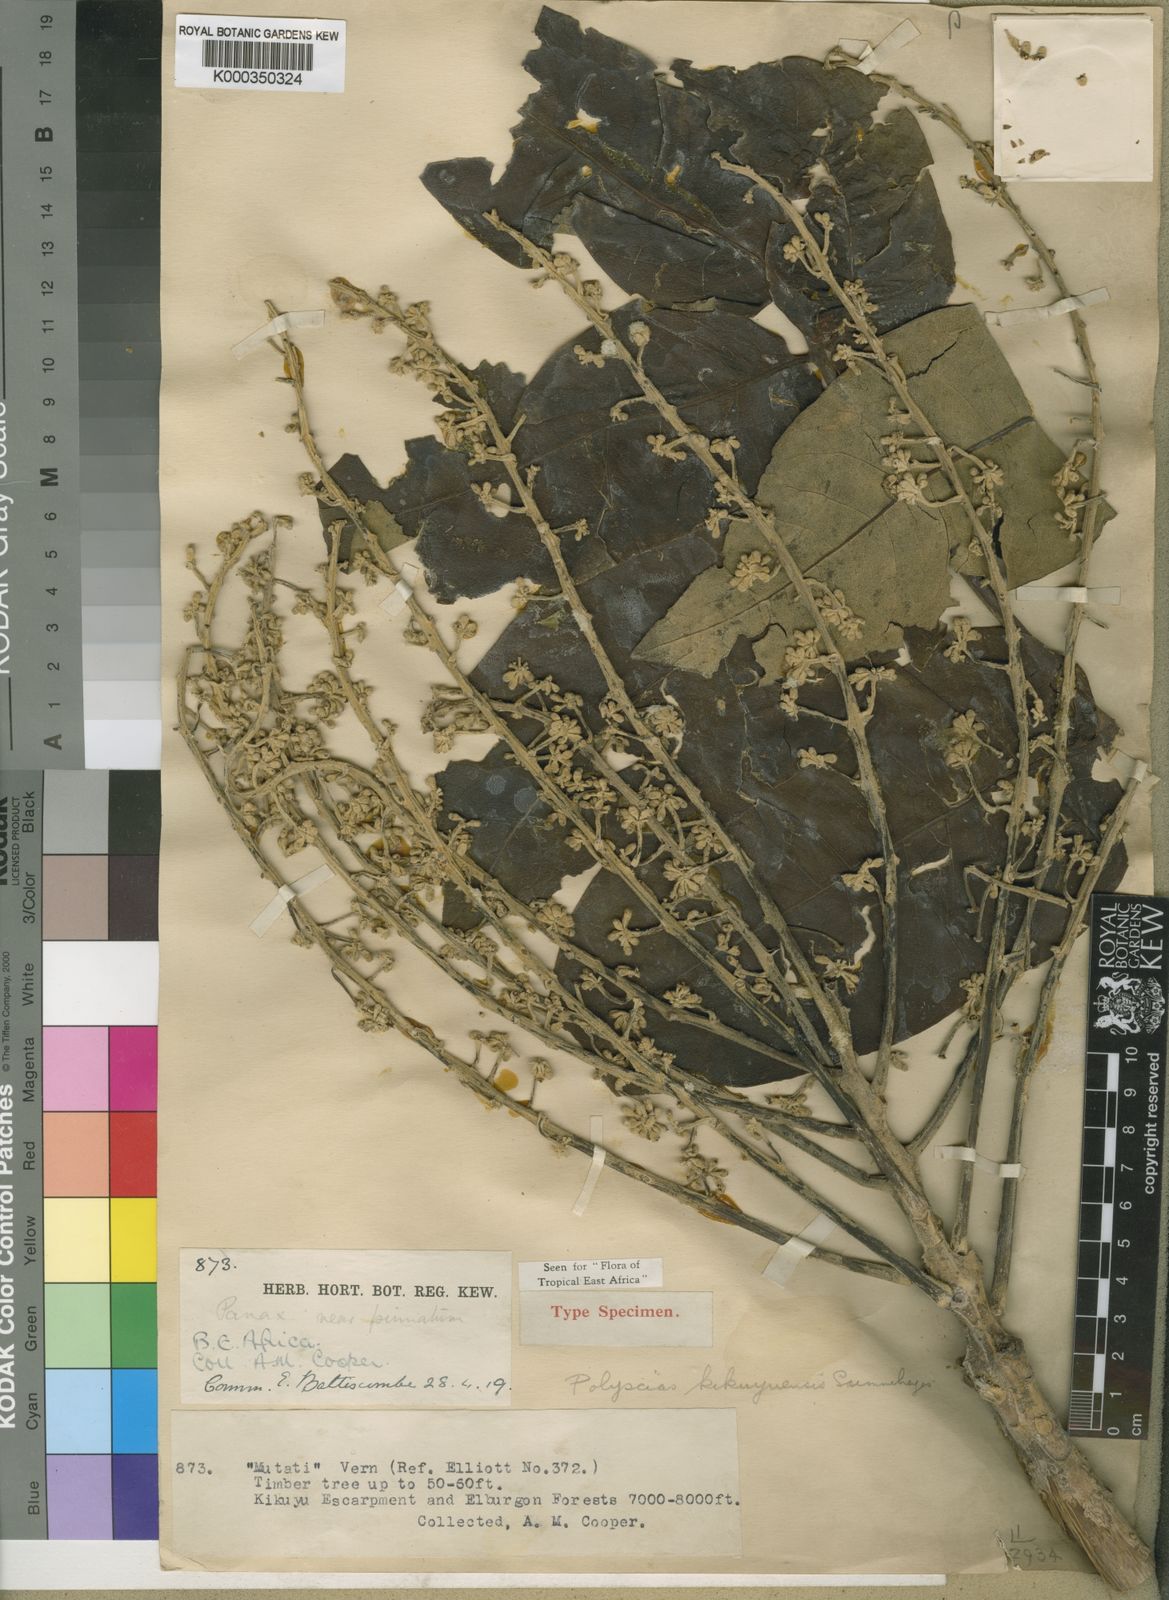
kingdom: Plantae
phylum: Tracheophyta
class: Magnoliopsida
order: Apiales
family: Araliaceae
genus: Polyscias
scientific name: Polyscias kikuyuensis
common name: Parasol tree
